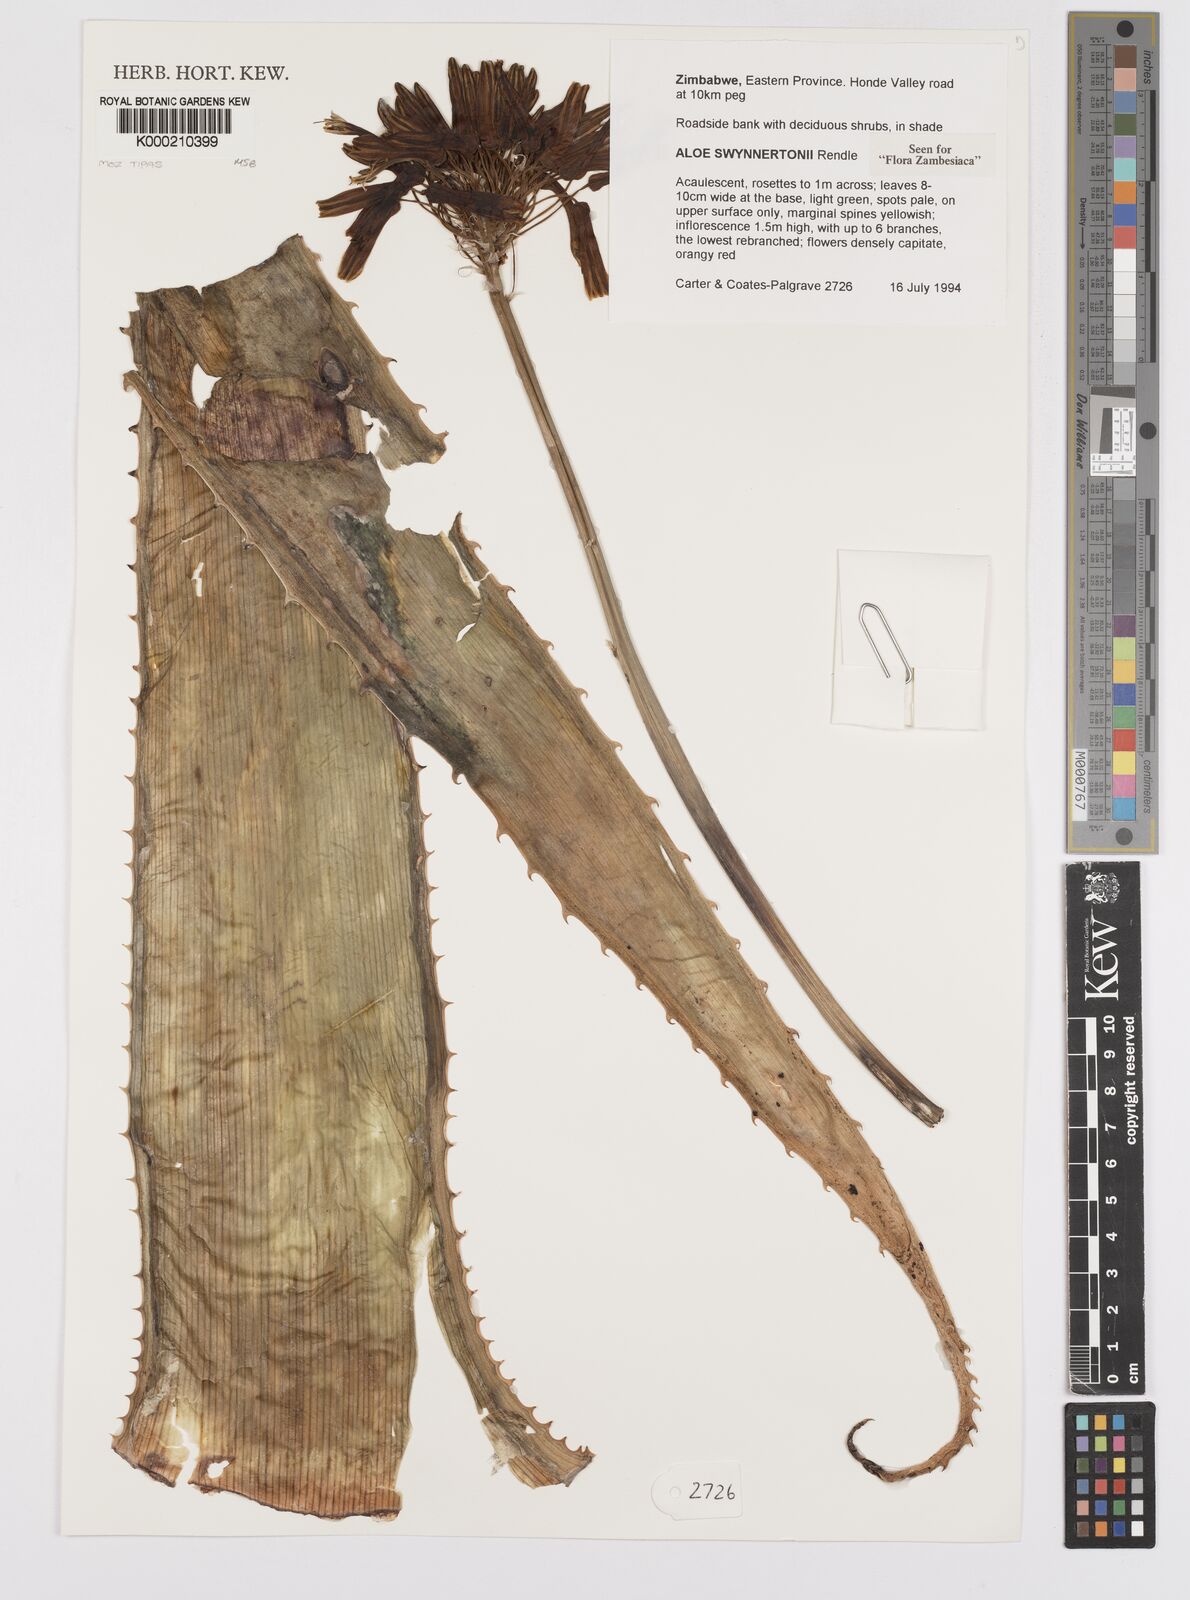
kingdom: Plantae
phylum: Tracheophyta
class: Liliopsida
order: Asparagales
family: Asphodelaceae
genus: Aloe
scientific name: Aloe swynnertonii
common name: Swynnerton's aloe
